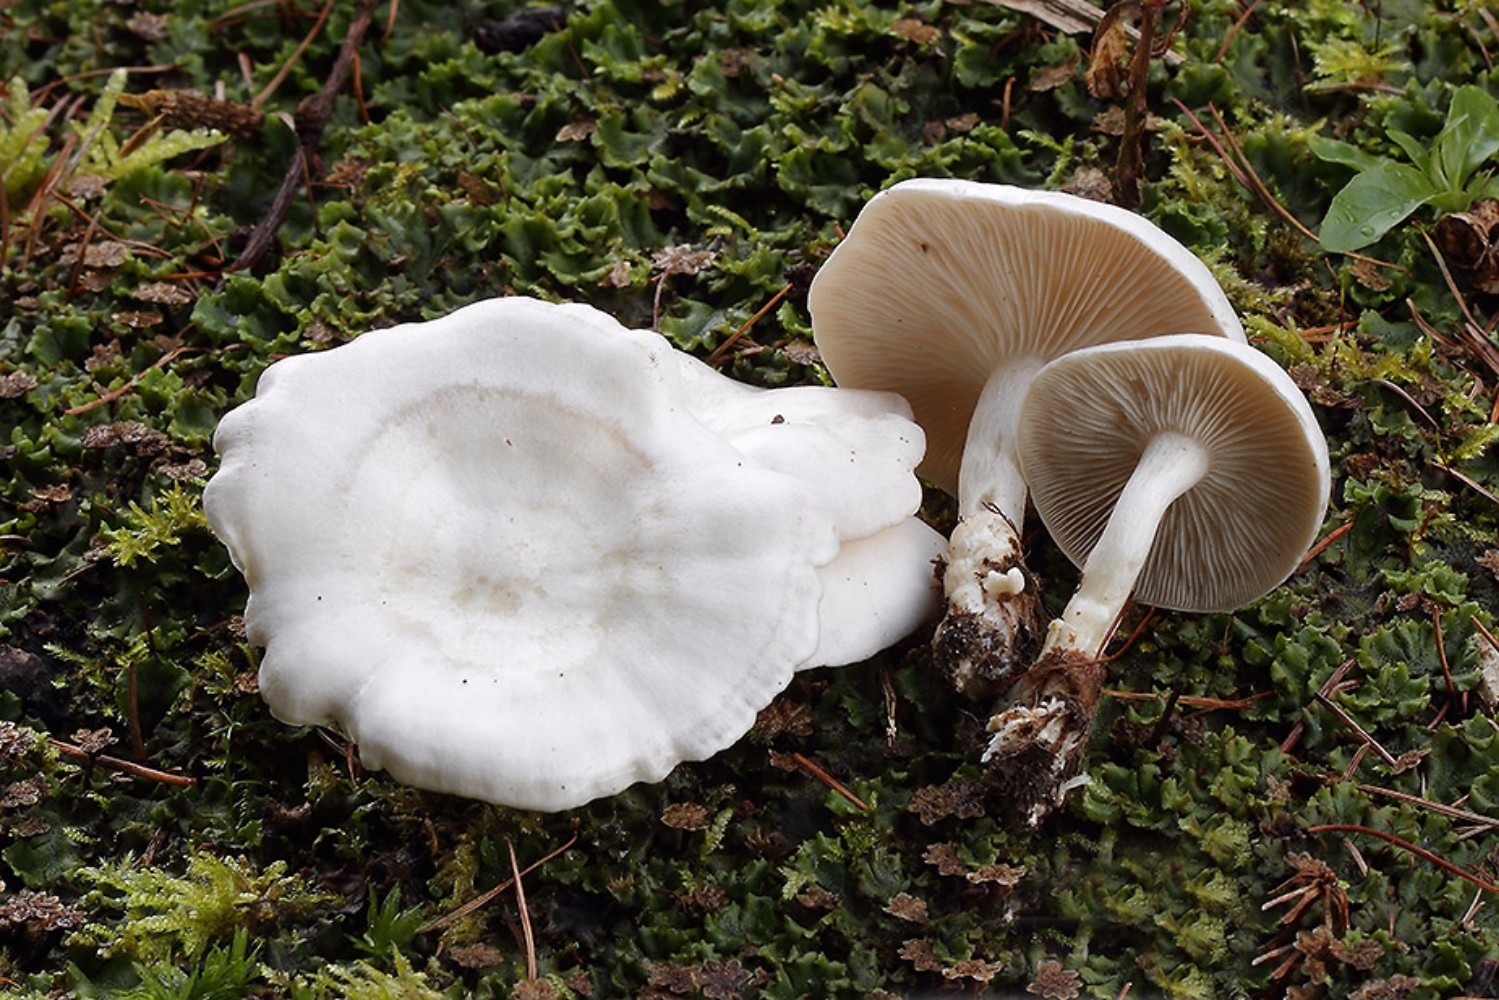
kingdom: Fungi
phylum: Basidiomycota
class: Agaricomycetes
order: Agaricales
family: Tricholomataceae
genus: Leucocybe
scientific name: Leucocybe connata
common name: knippe-tragthat
